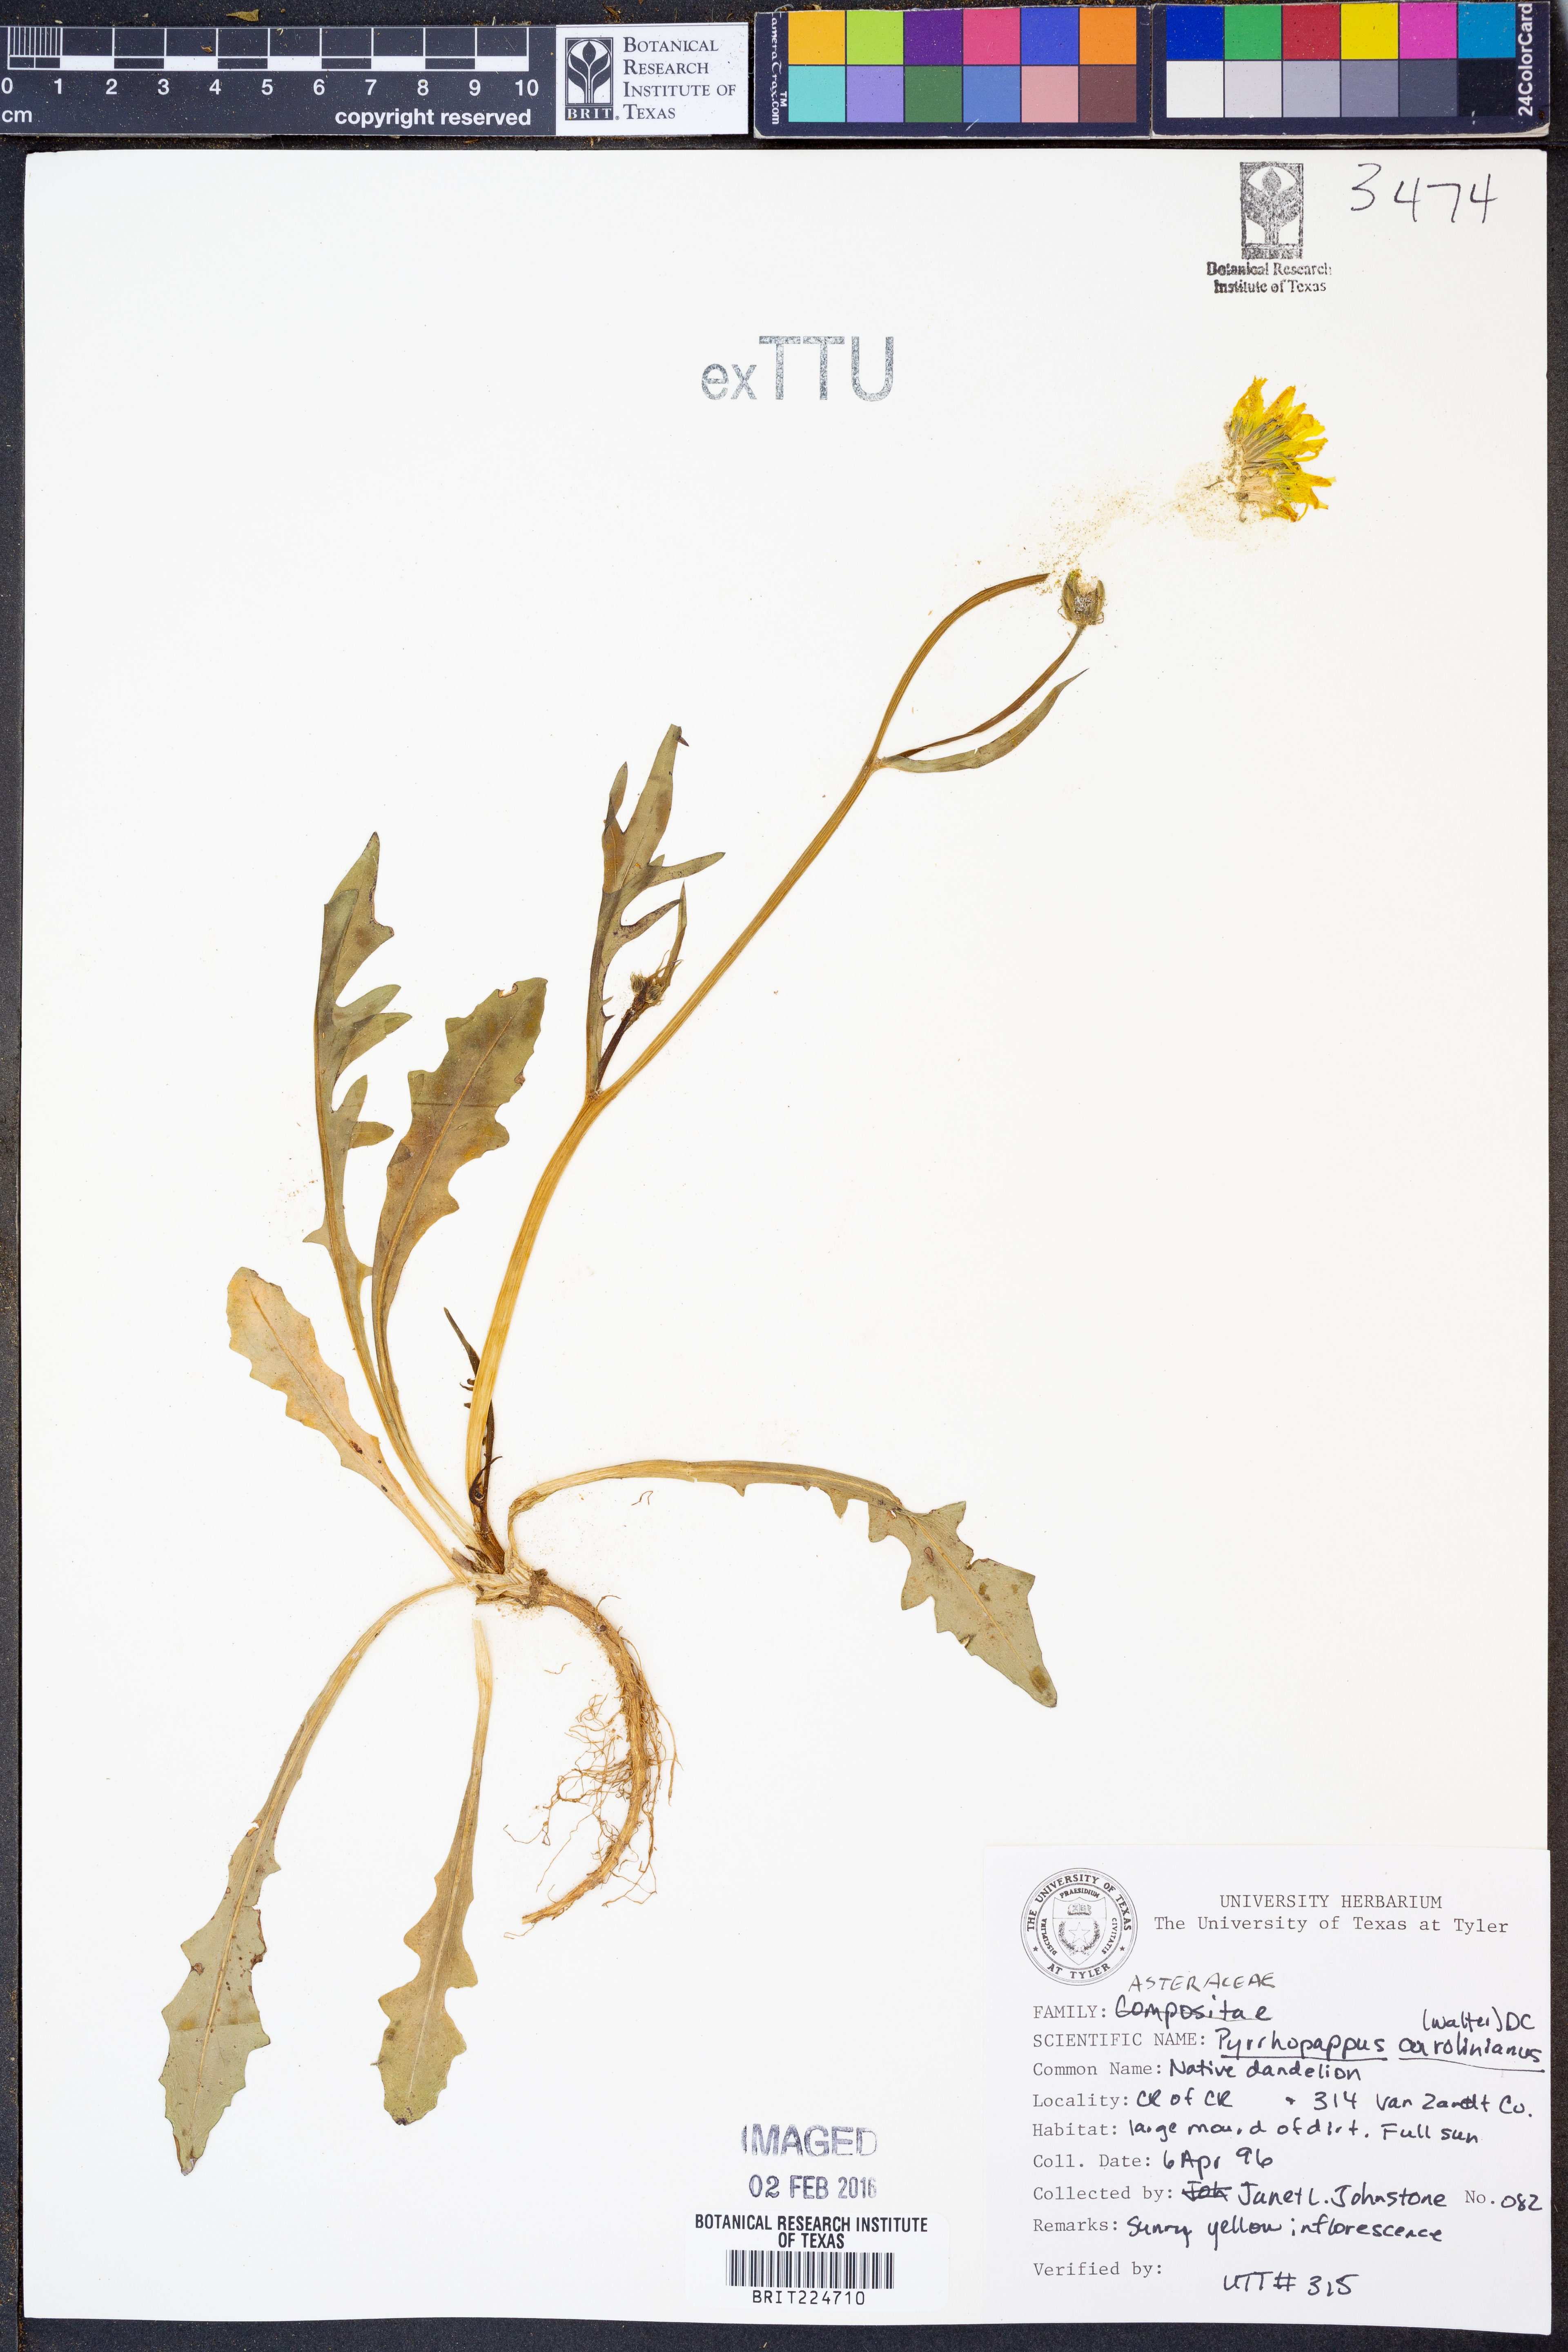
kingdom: Plantae
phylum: Tracheophyta
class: Magnoliopsida
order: Asterales
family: Asteraceae
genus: Pyrrhopappus
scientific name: Pyrrhopappus carolinianus
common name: Carolina desert-chicory
